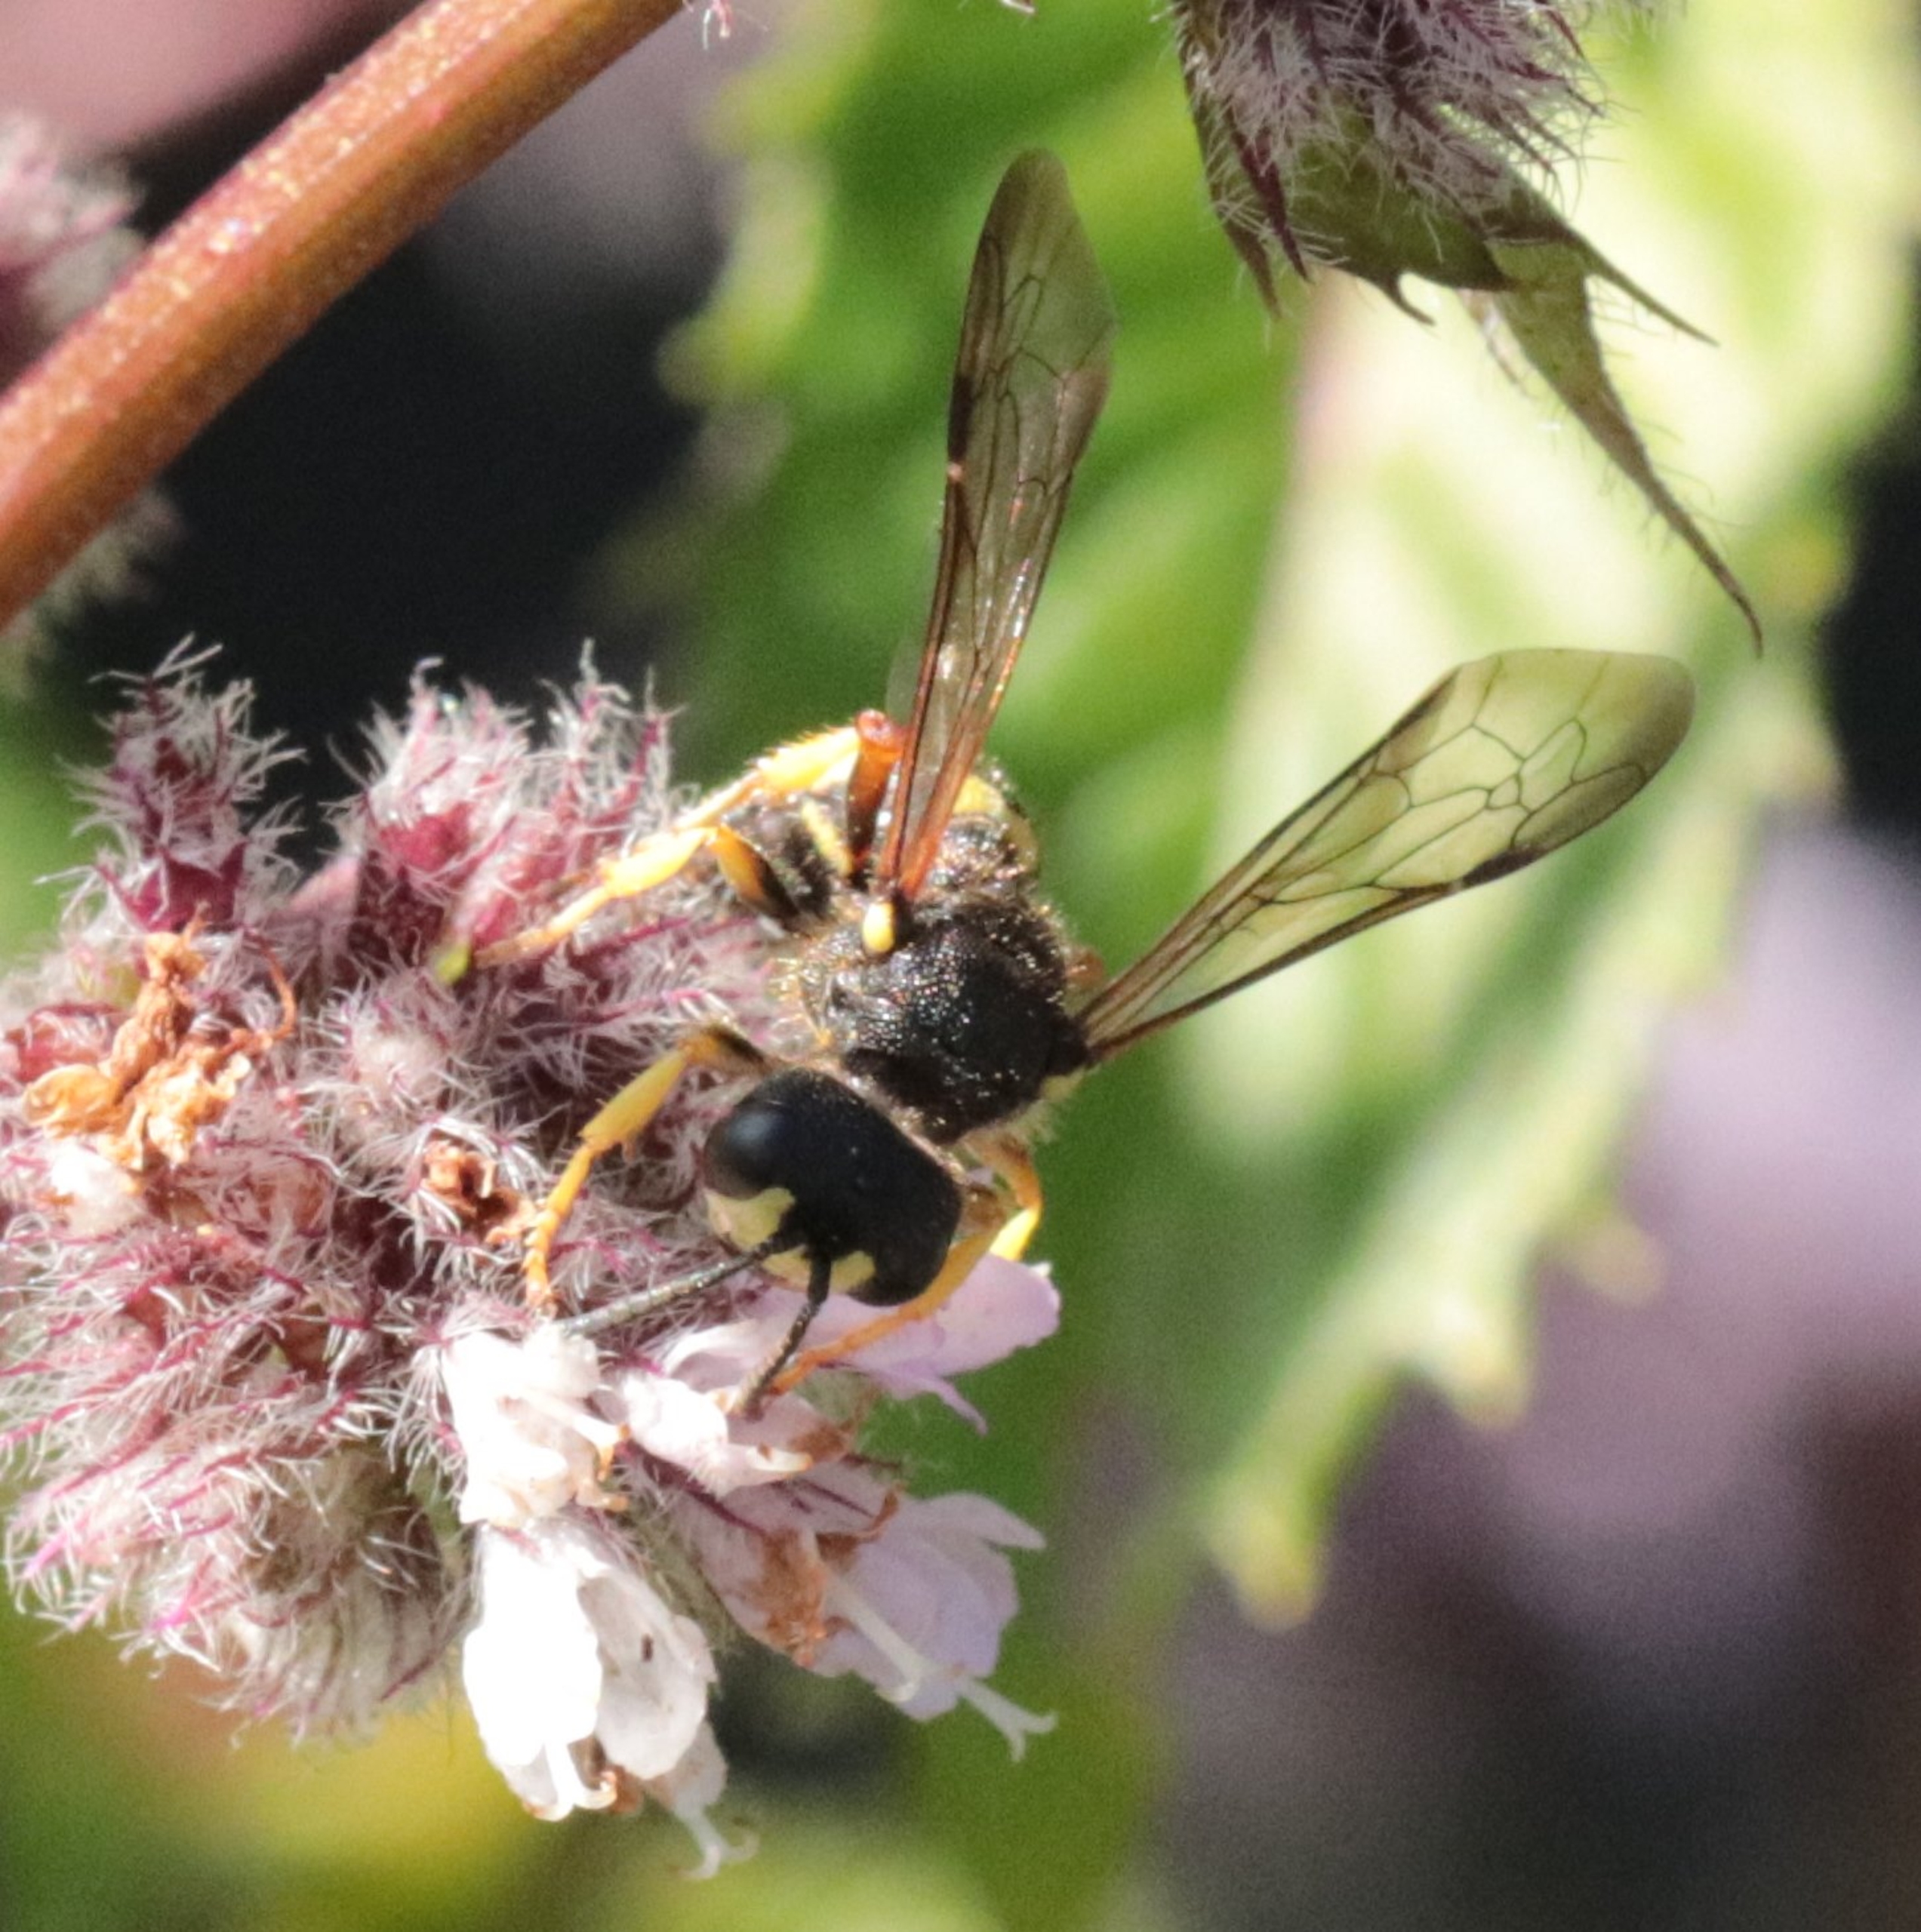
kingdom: Animalia
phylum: Arthropoda
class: Insecta
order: Hymenoptera
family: Crabronidae
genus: Cerceris
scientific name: Cerceris rybyensis
